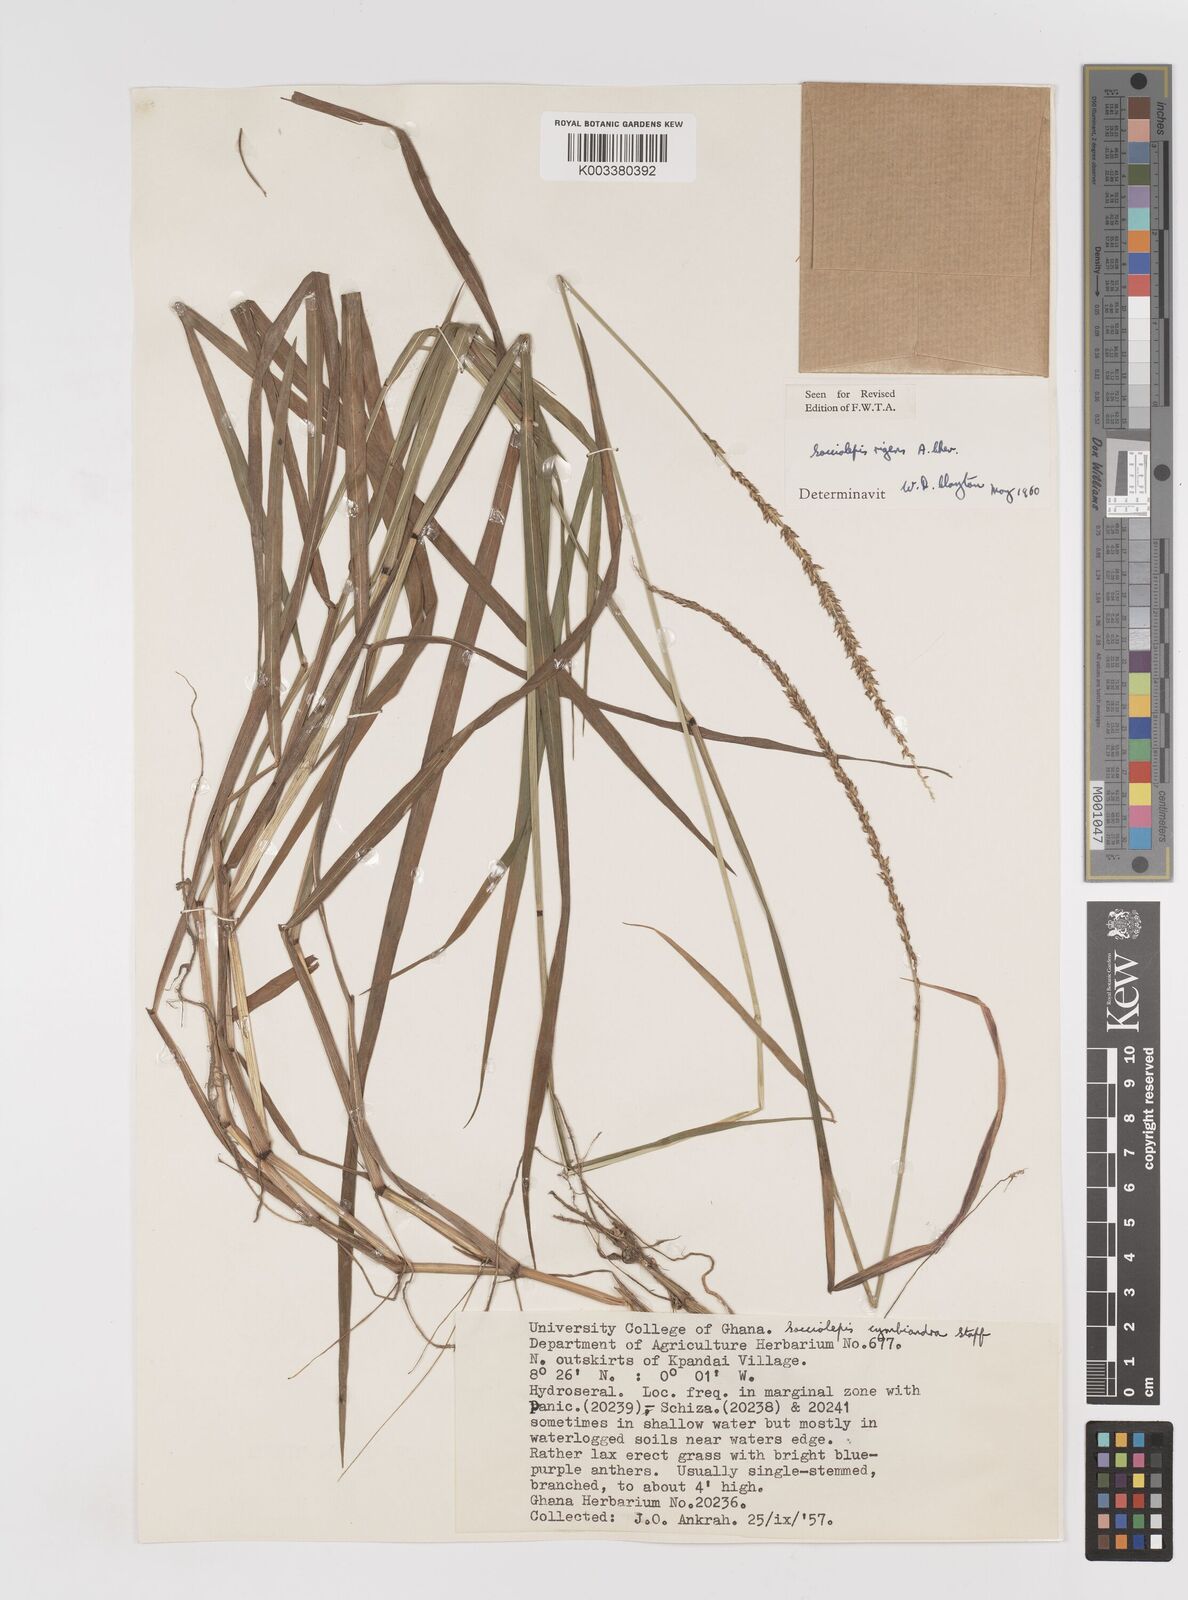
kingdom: Plantae
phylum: Tracheophyta
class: Liliopsida
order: Poales
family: Poaceae
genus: Sacciolepis
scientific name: Sacciolepis leptorrhachis
